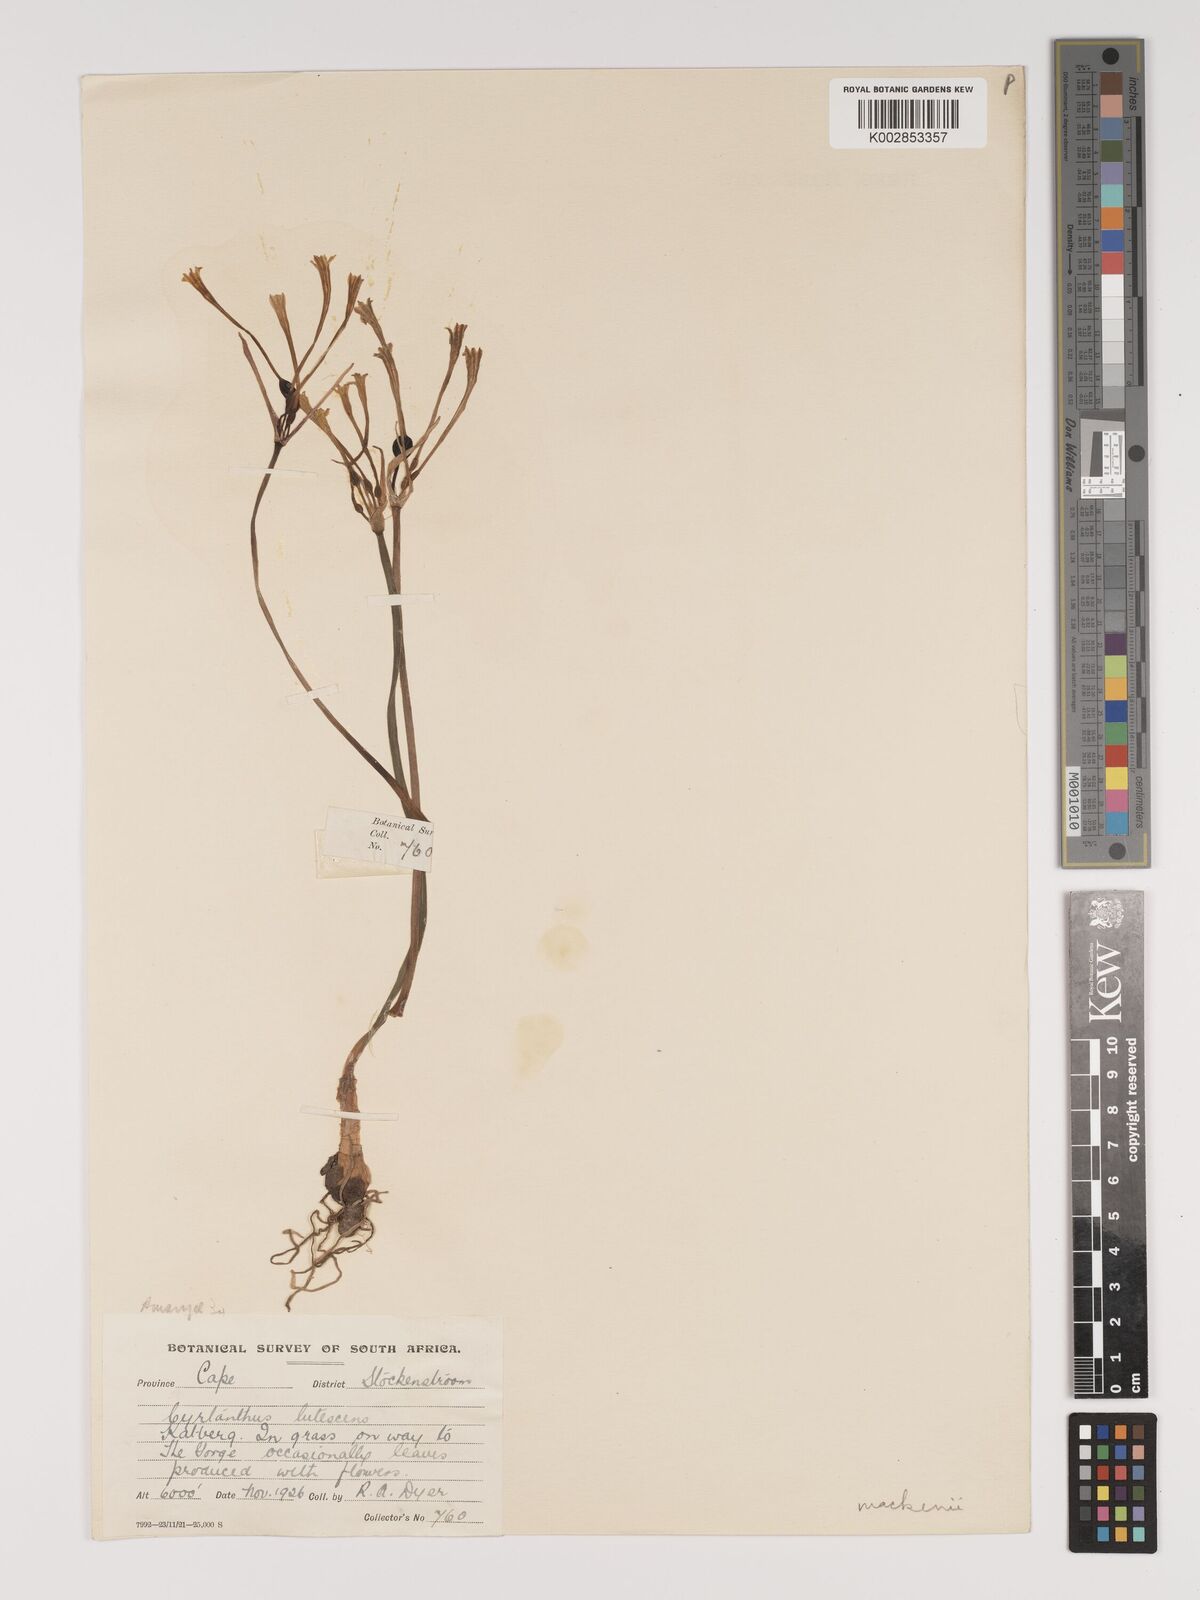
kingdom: Plantae
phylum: Tracheophyta
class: Liliopsida
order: Asparagales
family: Amaryllidaceae
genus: Cyrtanthus
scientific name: Cyrtanthus mackenii
